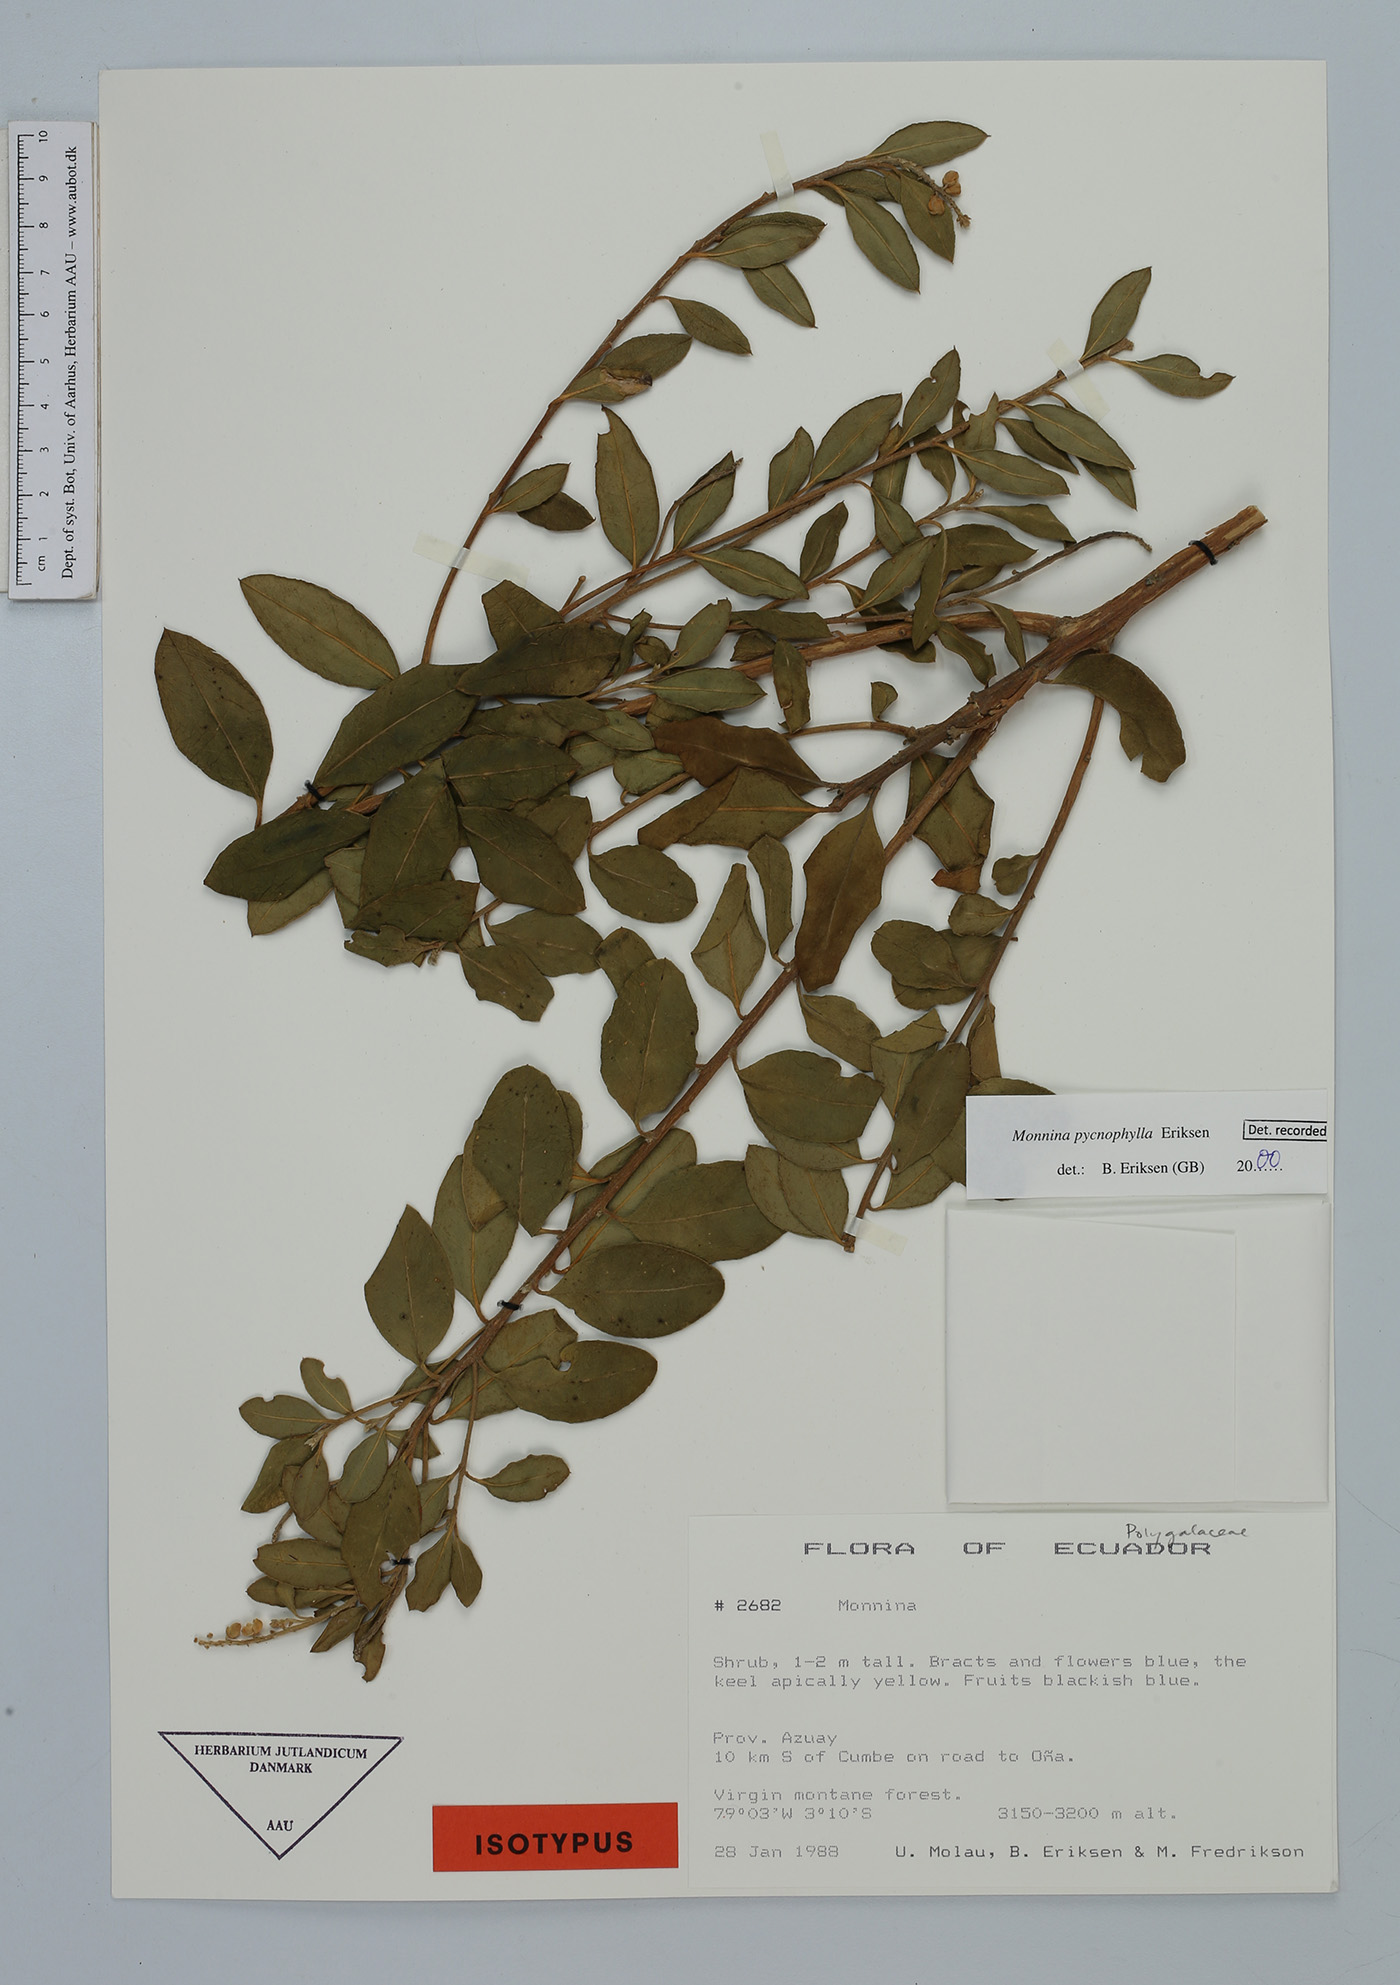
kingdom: Plantae
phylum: Tracheophyta
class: Magnoliopsida
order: Fabales
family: Polygalaceae
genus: Monnina
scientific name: Monnina pycnophylla
